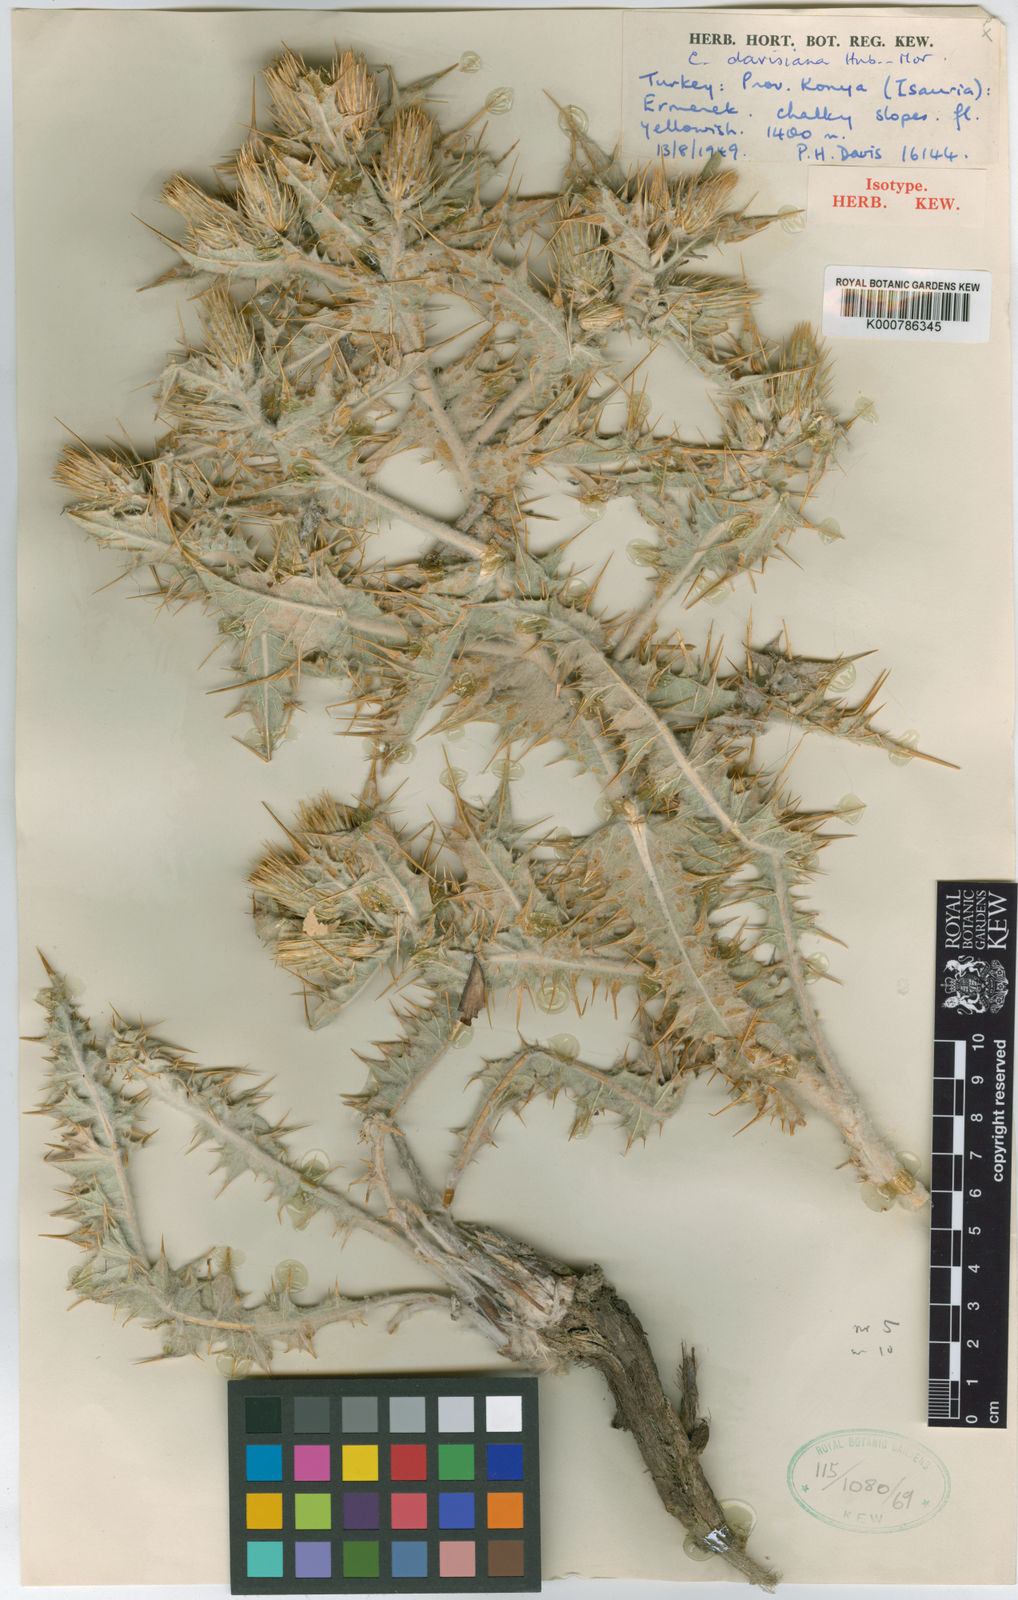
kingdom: Plantae
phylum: Tracheophyta
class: Magnoliopsida
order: Asterales
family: Asteraceae
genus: Cousinia
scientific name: Cousinia davisiana
